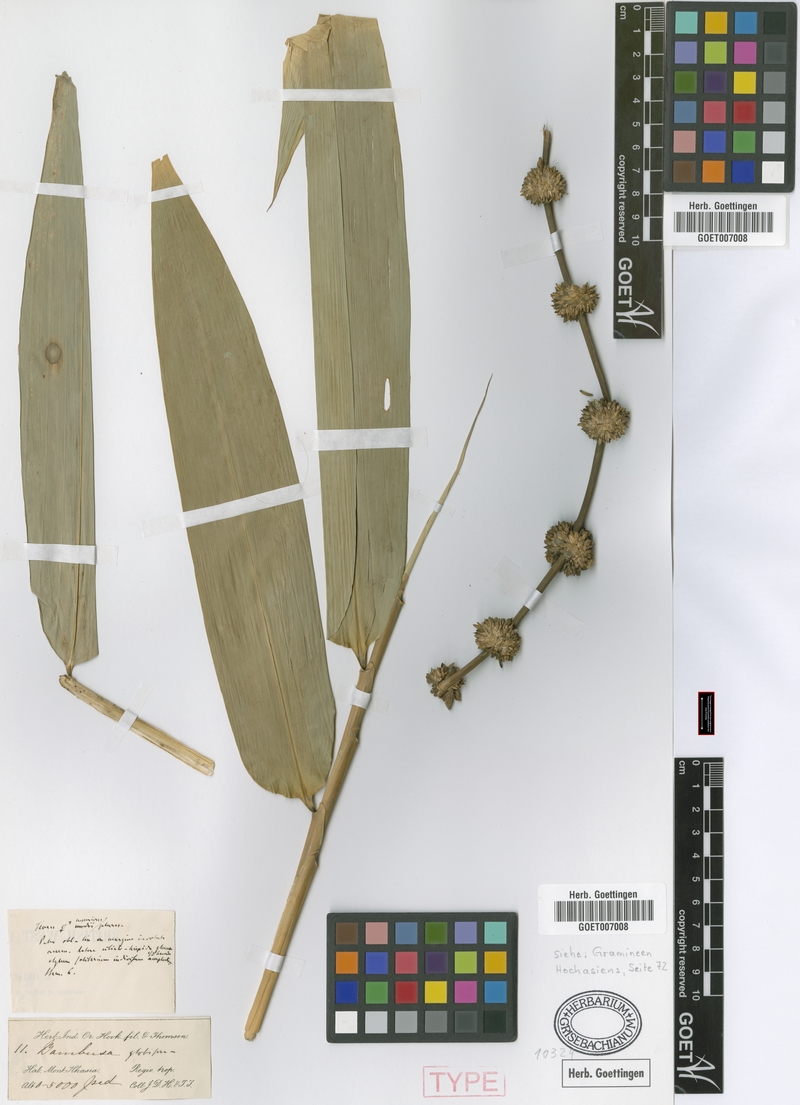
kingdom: Plantae
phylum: Tracheophyta
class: Liliopsida
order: Poales
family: Poaceae
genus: Dendrocalamus
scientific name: Dendrocalamus hookeri
